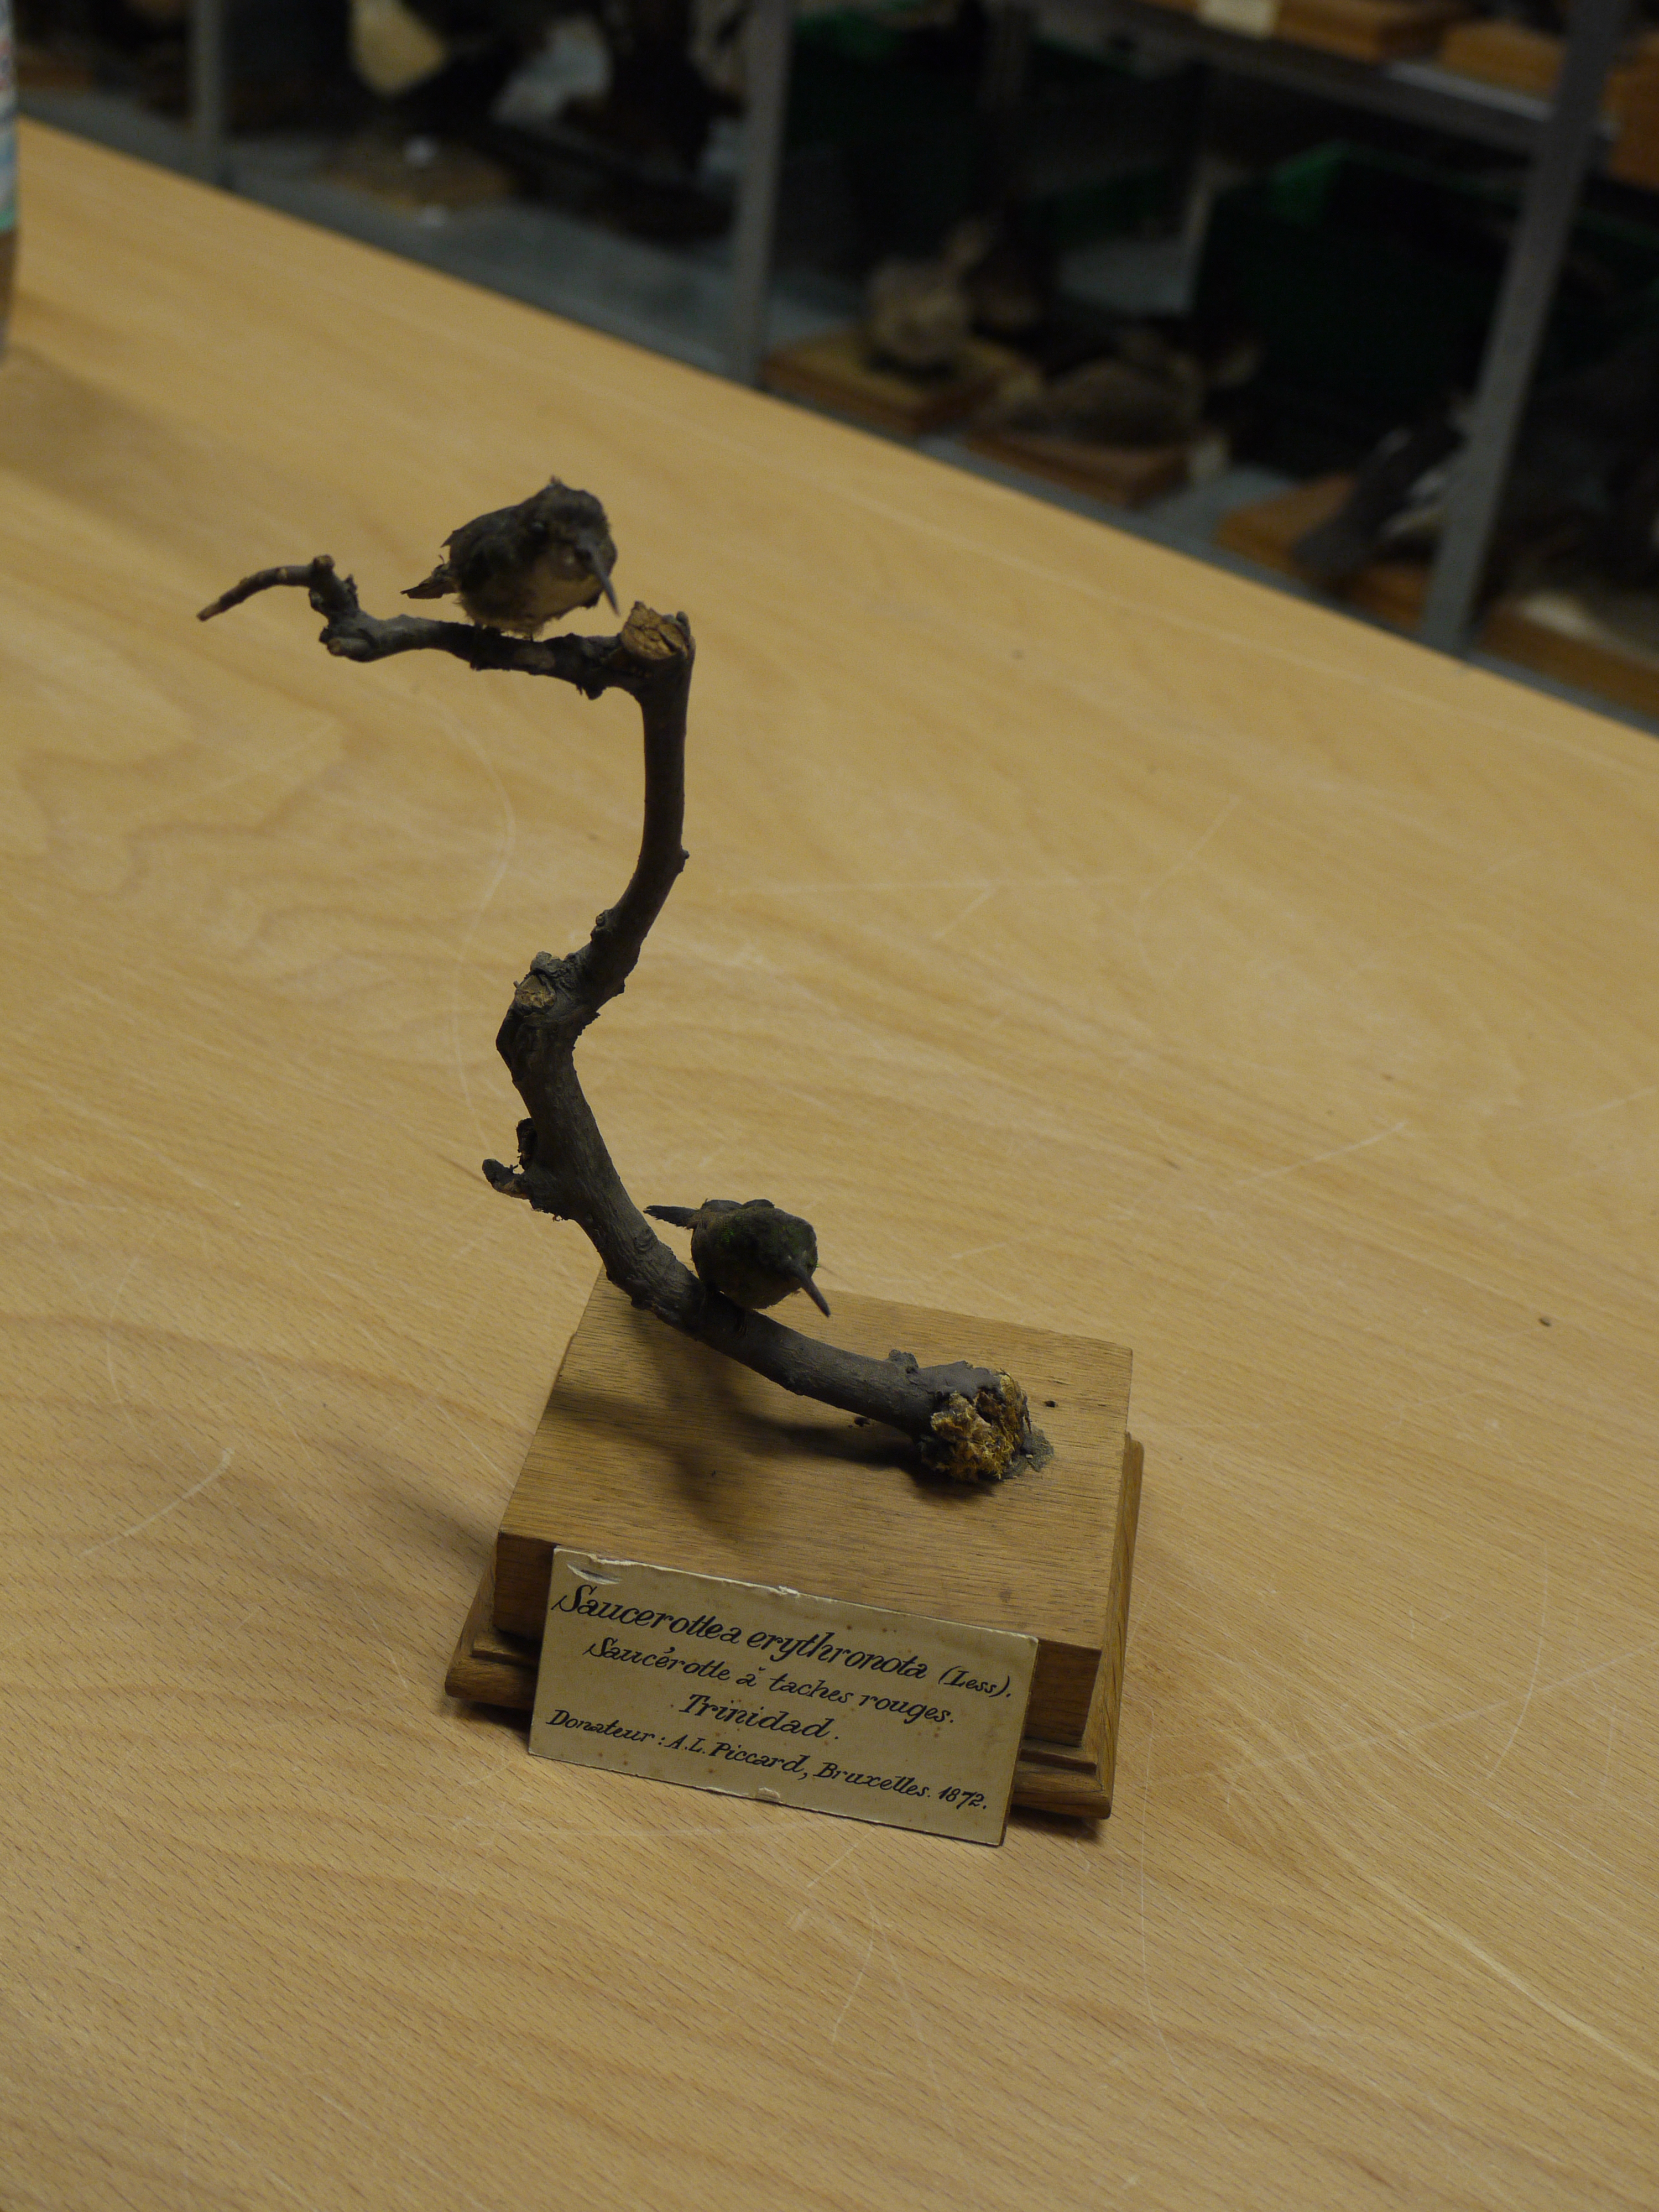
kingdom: Animalia
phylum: Chordata
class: Aves
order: Apodiformes
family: Trochilidae
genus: Agyrtria
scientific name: Agyrtria
